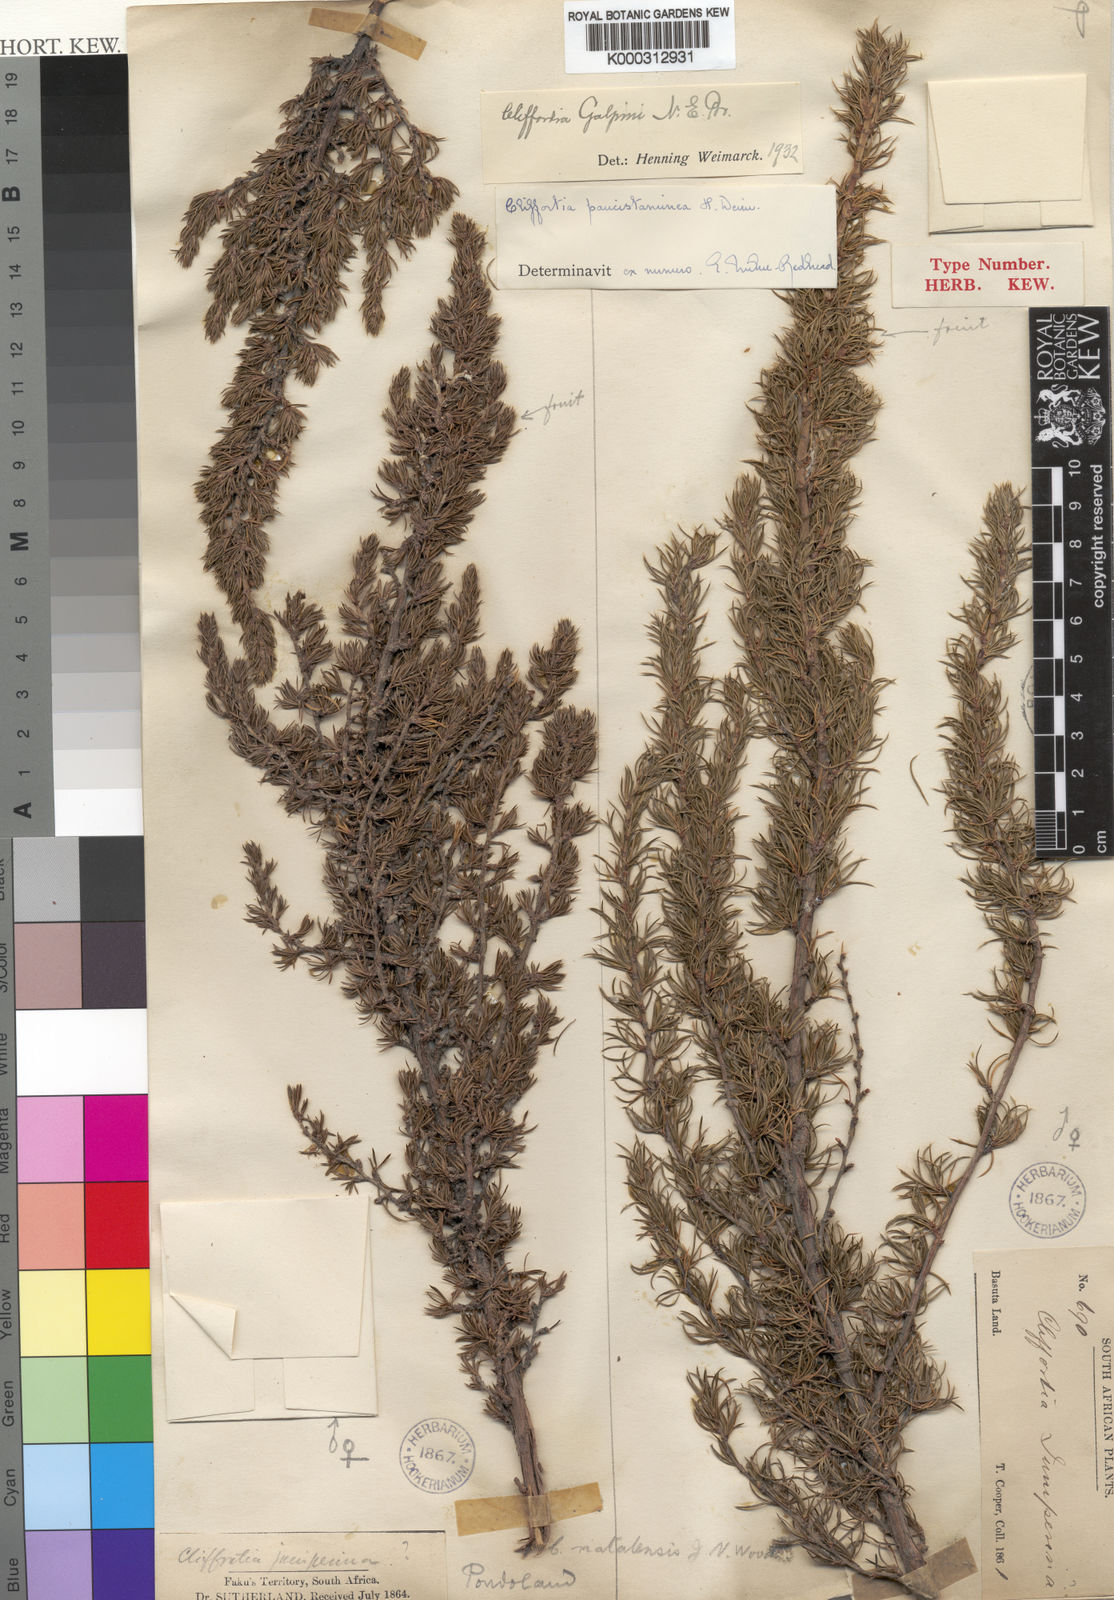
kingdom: Plantae
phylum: Tracheophyta
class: Magnoliopsida
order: Rosales
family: Rosaceae
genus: Cliffortia
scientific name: Cliffortia paucistaminea
